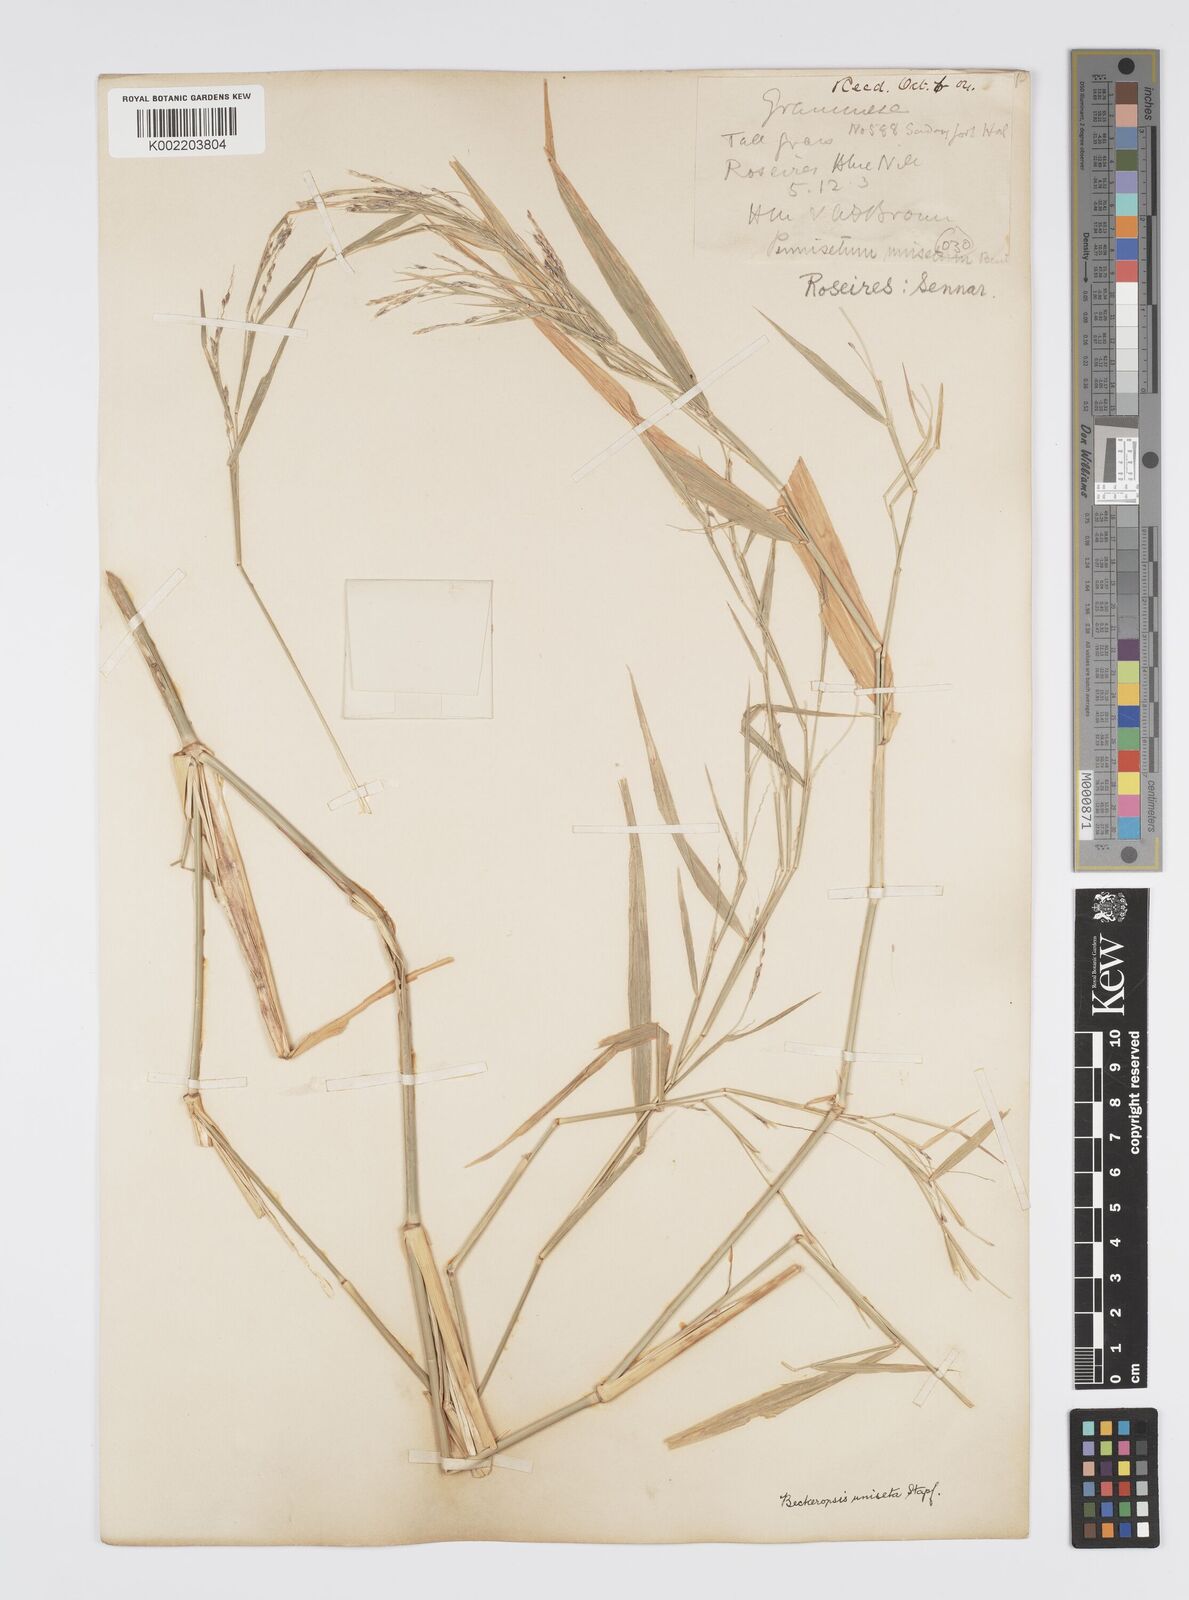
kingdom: Plantae
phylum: Tracheophyta
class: Liliopsida
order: Poales
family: Poaceae
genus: Cenchrus
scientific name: Cenchrus unisetus
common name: Natal grass
